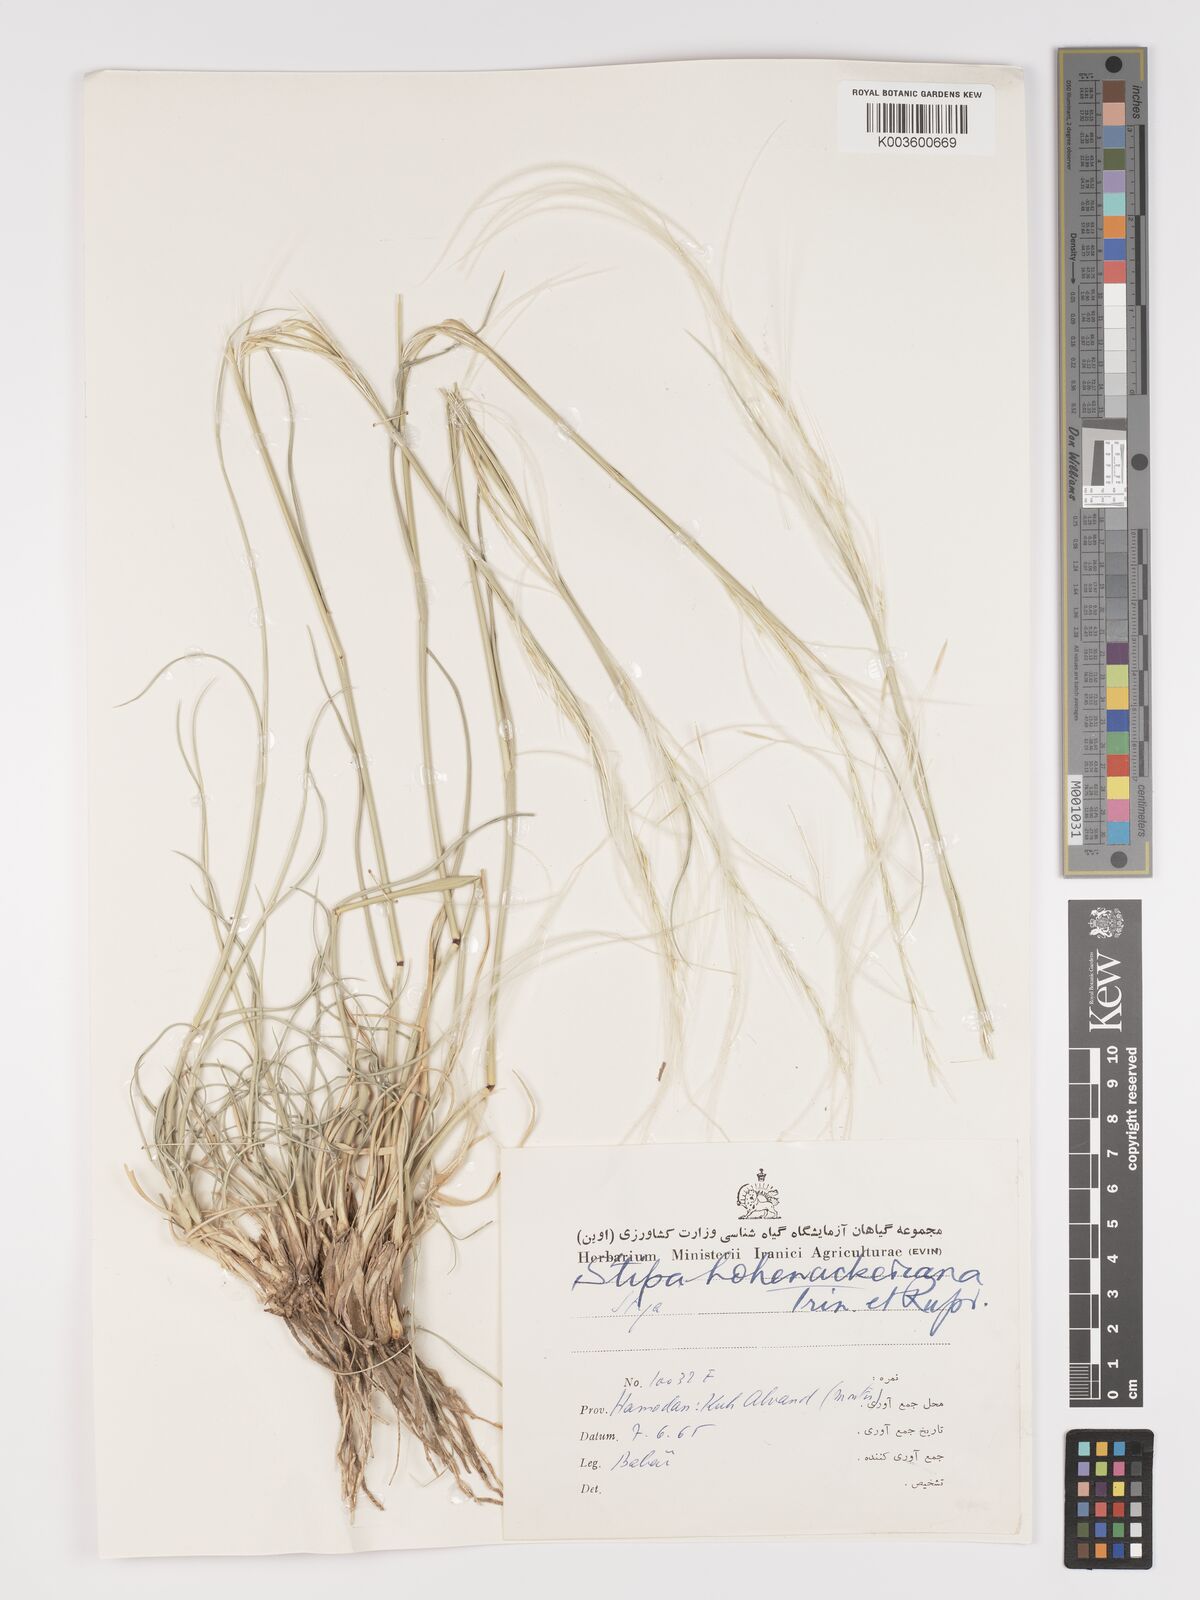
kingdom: Plantae
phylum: Tracheophyta
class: Liliopsida
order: Poales
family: Poaceae
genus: Stipa
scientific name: Stipa hohenackeriana
